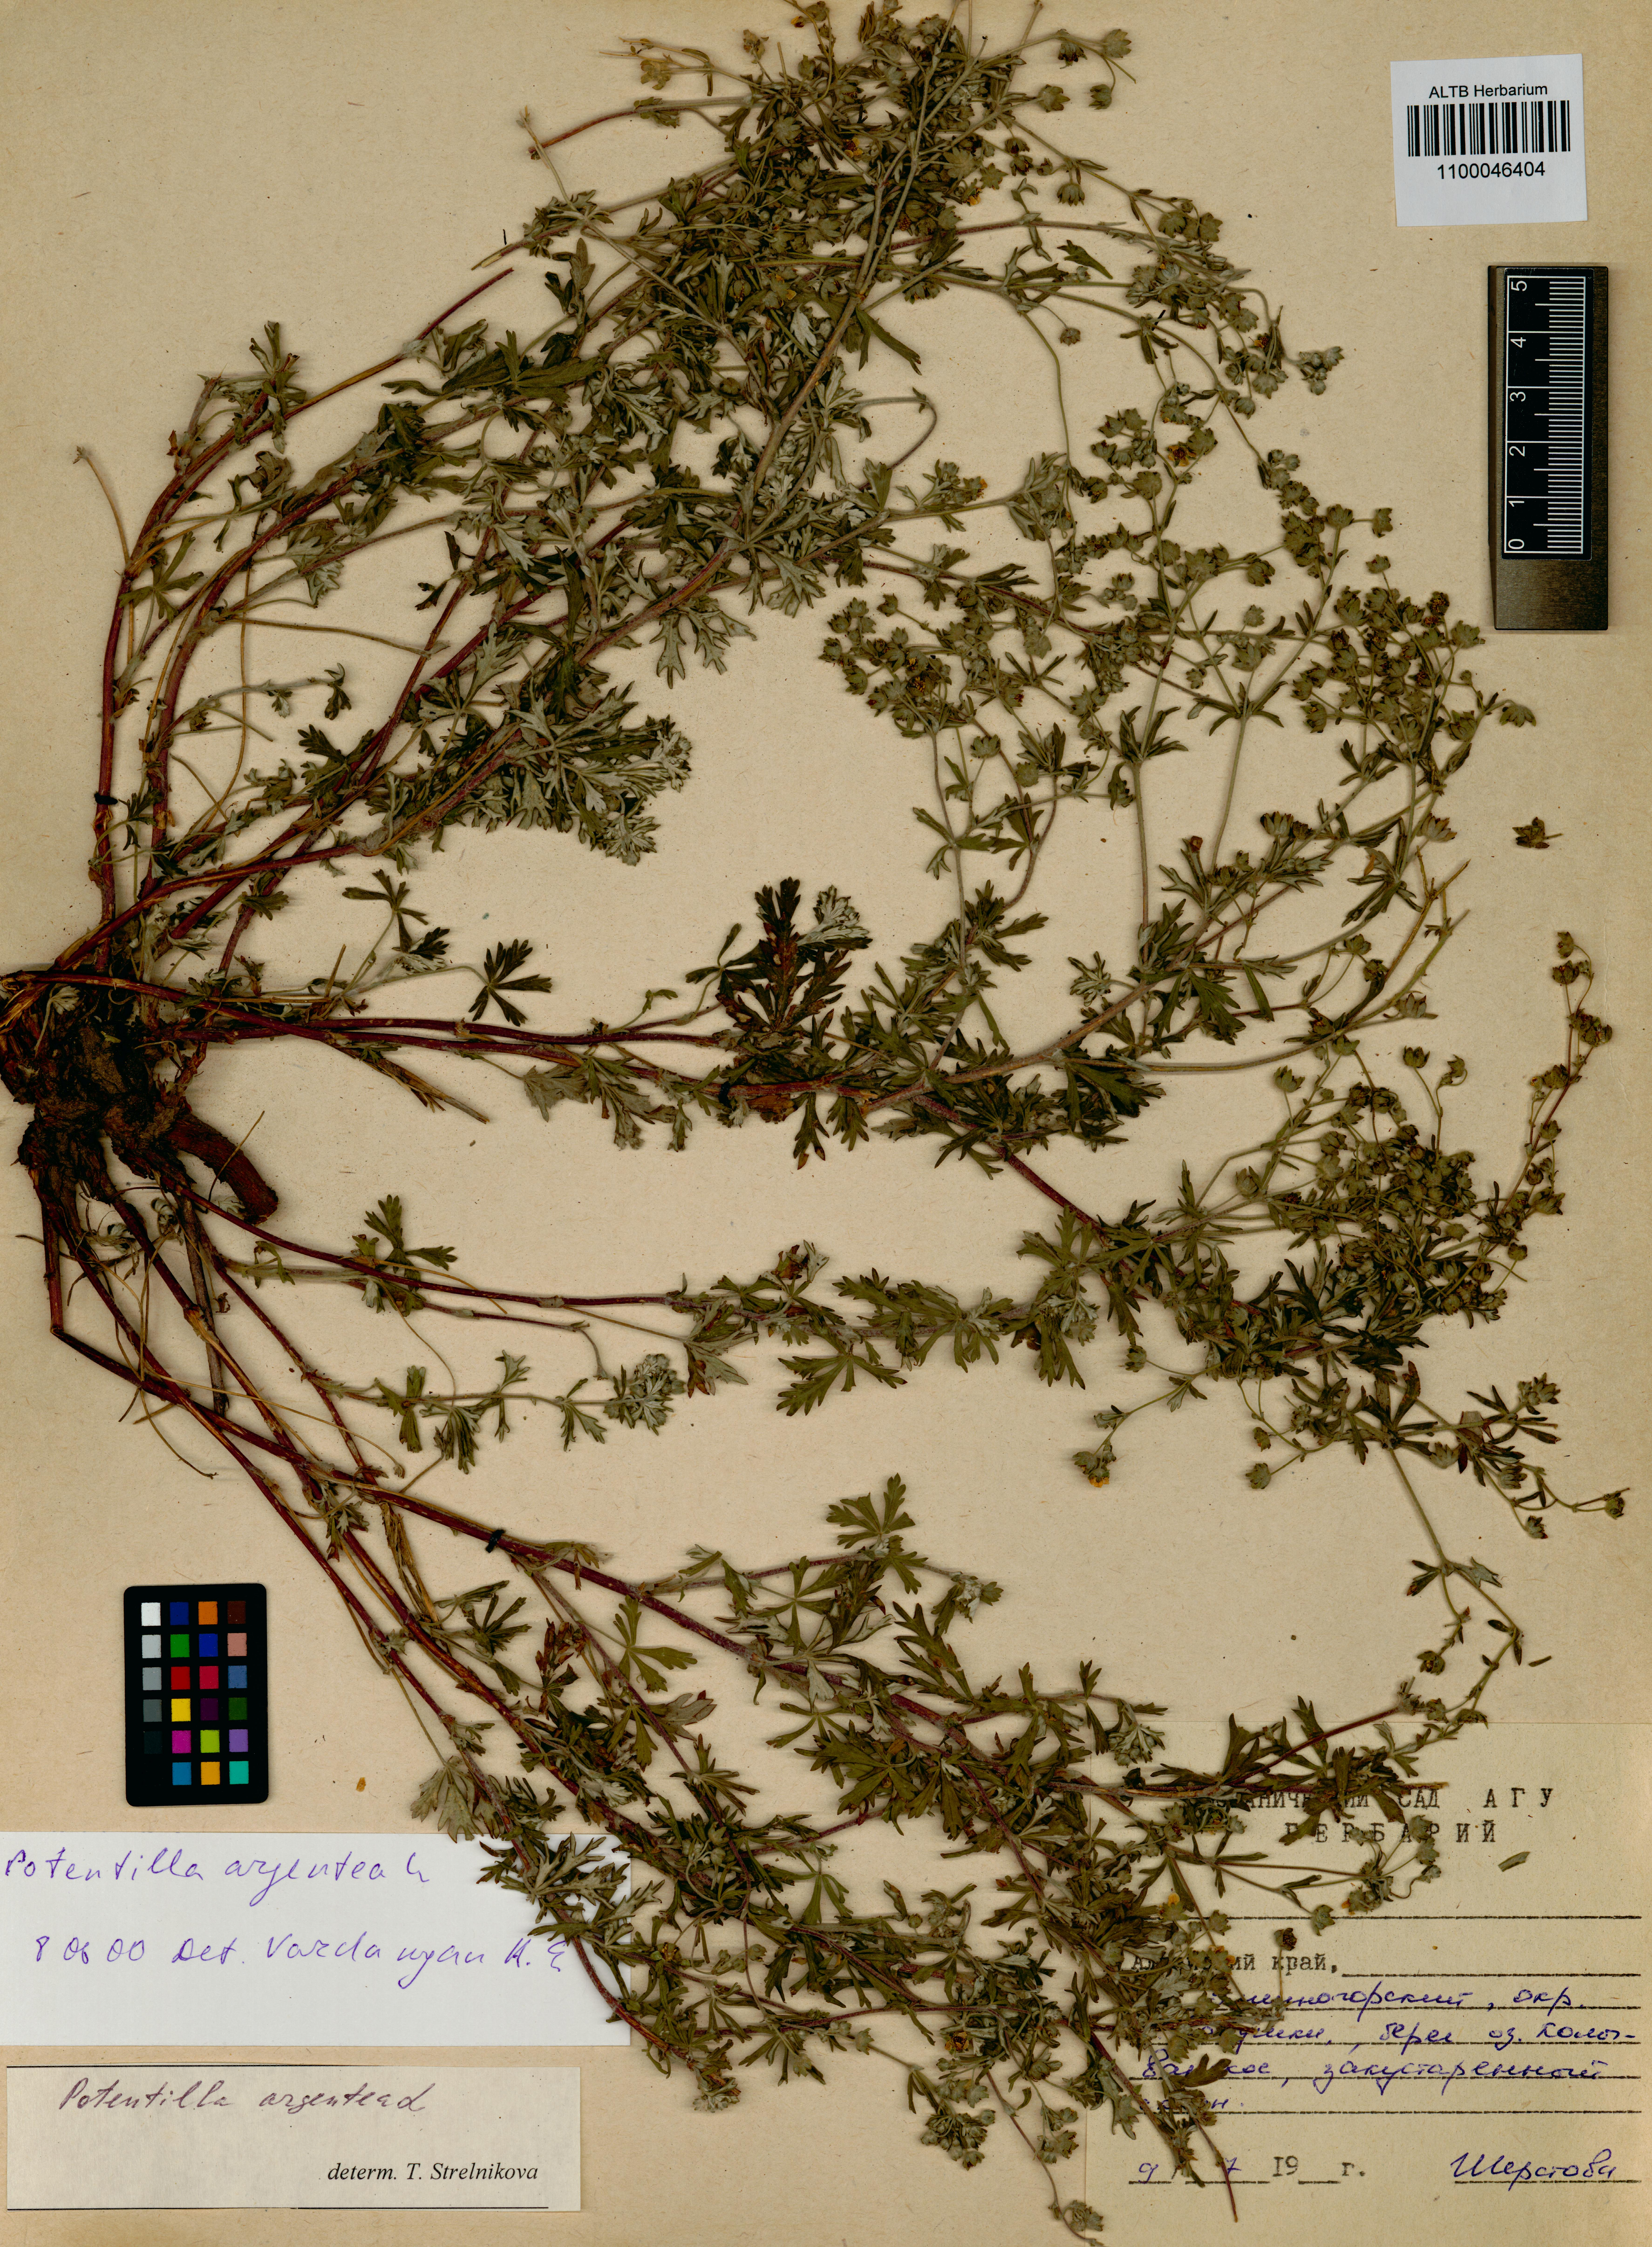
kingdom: Plantae
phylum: Tracheophyta
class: Magnoliopsida
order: Rosales
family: Rosaceae
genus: Potentilla
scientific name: Potentilla argentea
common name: Hoary cinquefoil
